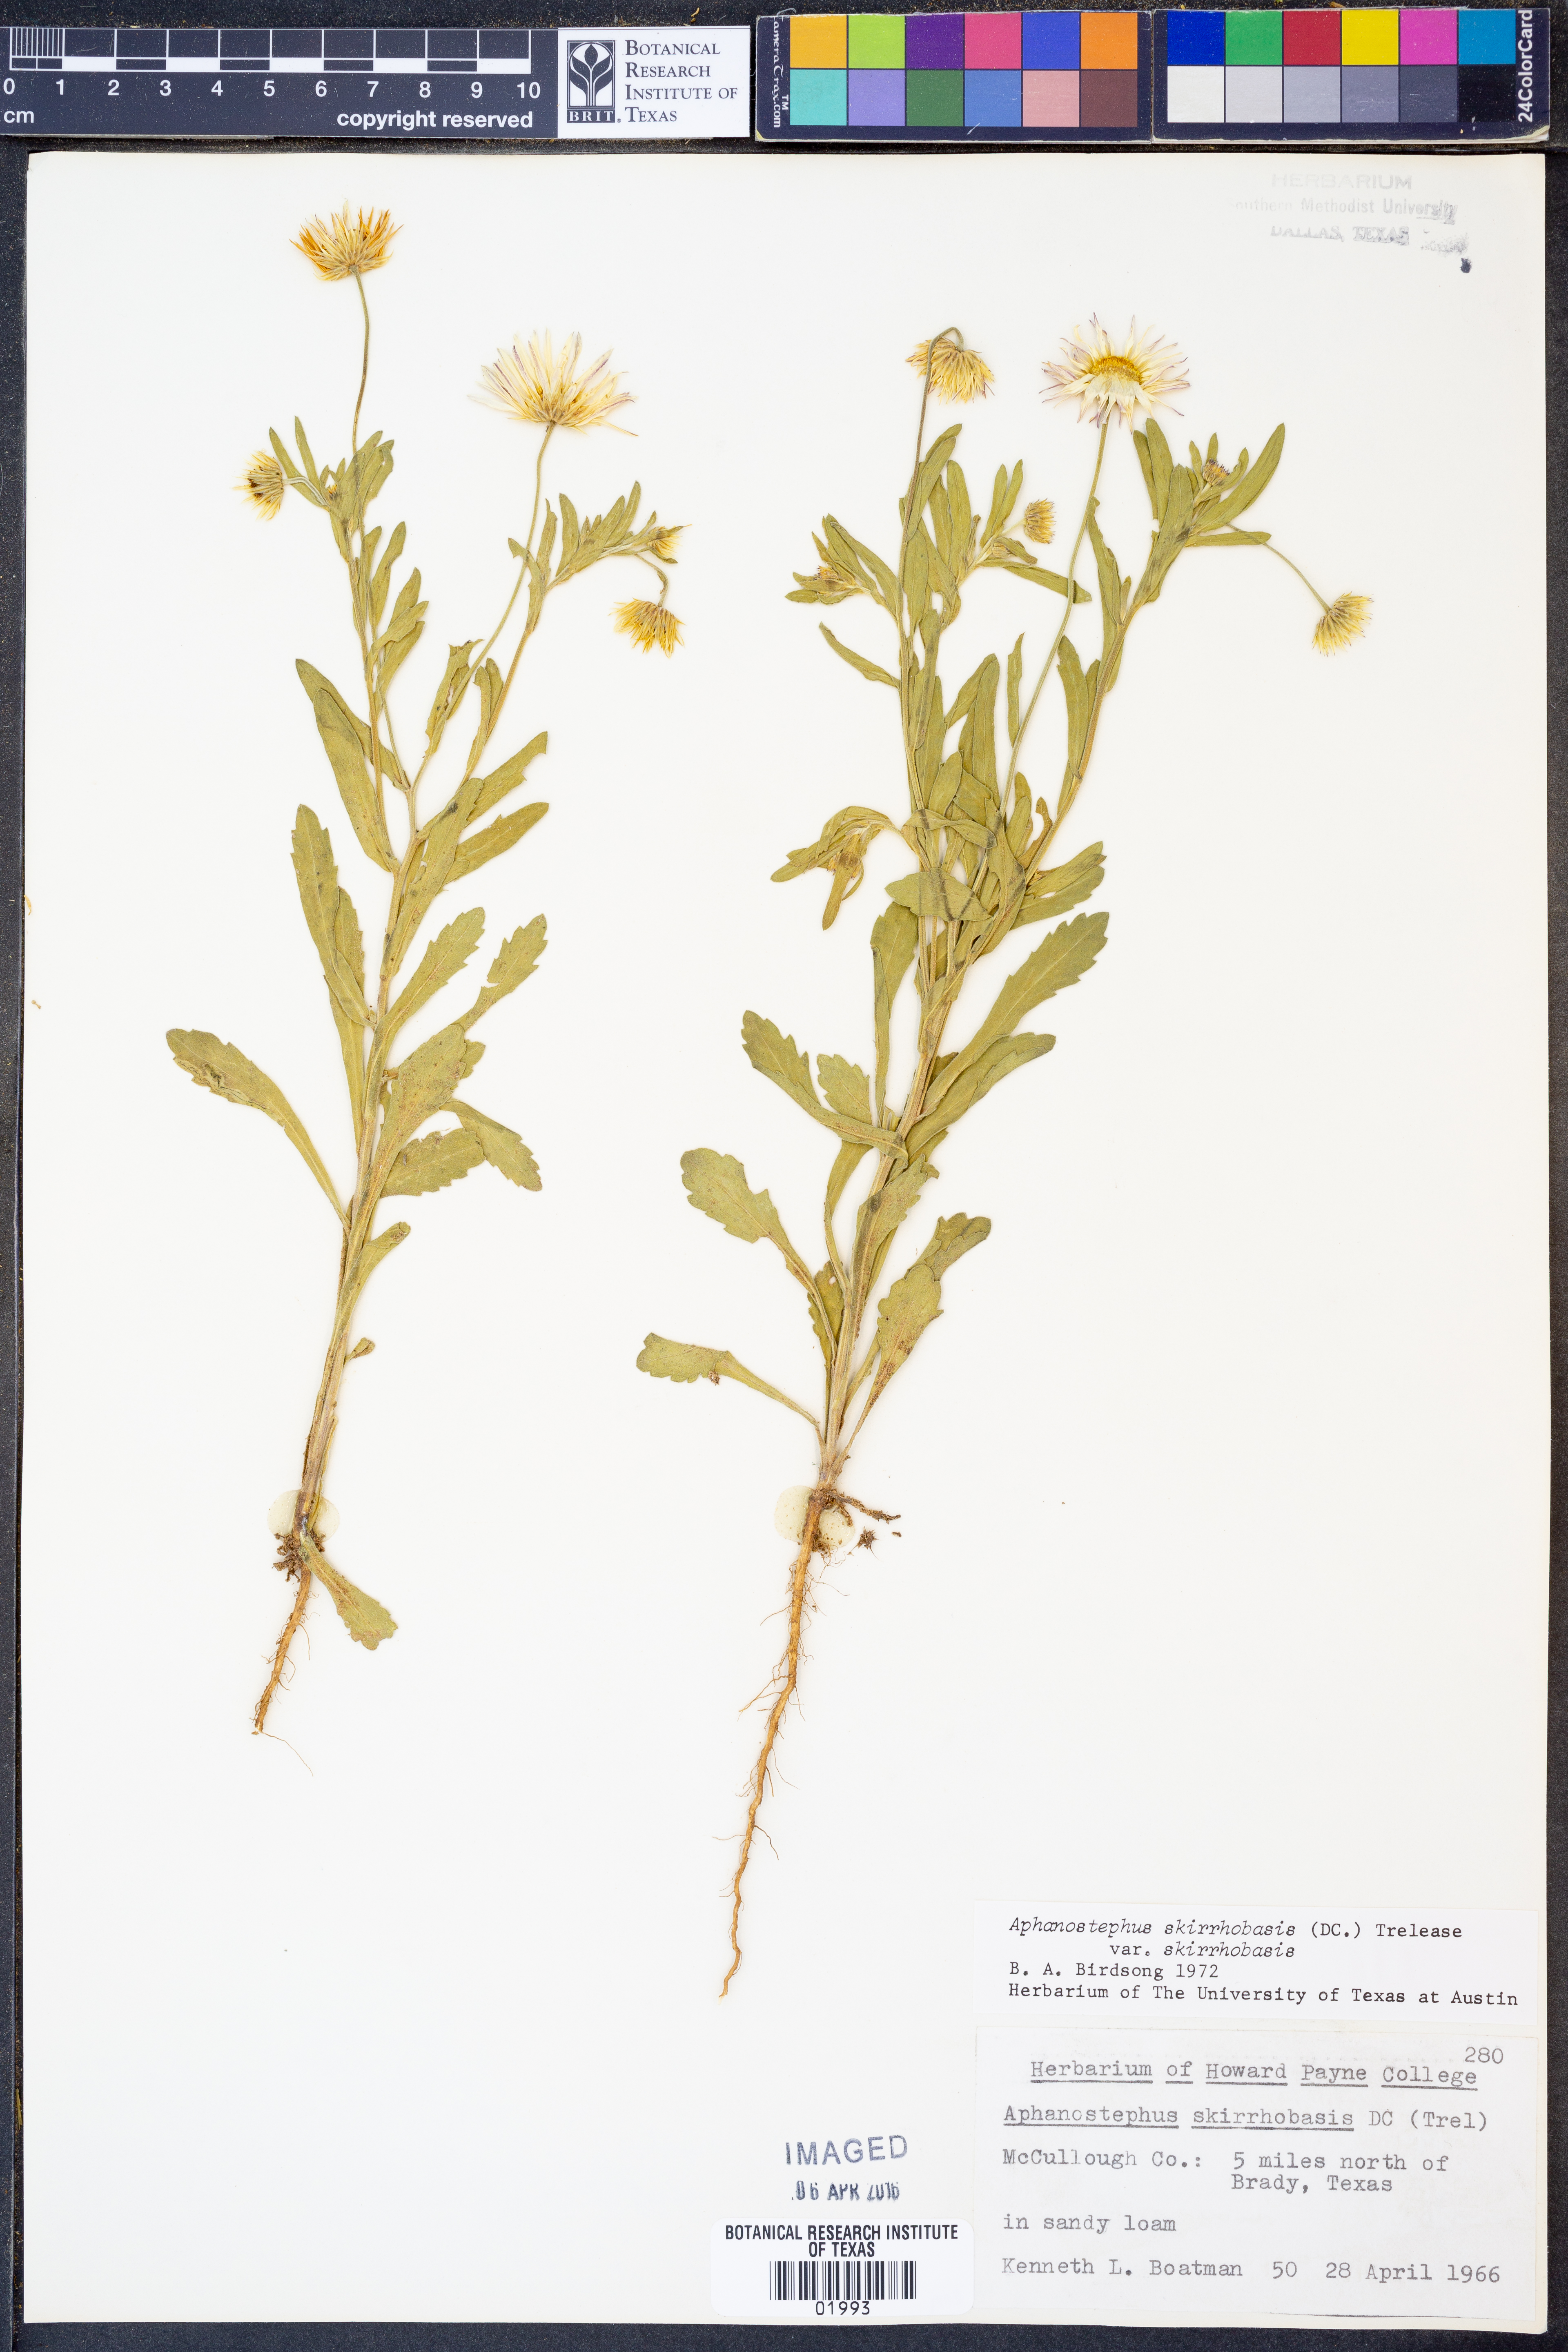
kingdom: Plantae
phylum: Tracheophyta
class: Magnoliopsida
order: Asterales
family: Asteraceae
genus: Aphanostephus
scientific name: Aphanostephus skirrhobasis
